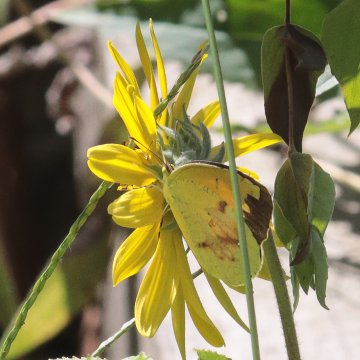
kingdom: Animalia
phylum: Arthropoda
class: Insecta
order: Lepidoptera
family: Pieridae
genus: Abaeis
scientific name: Abaeis nicippe
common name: Sleepy Orange
